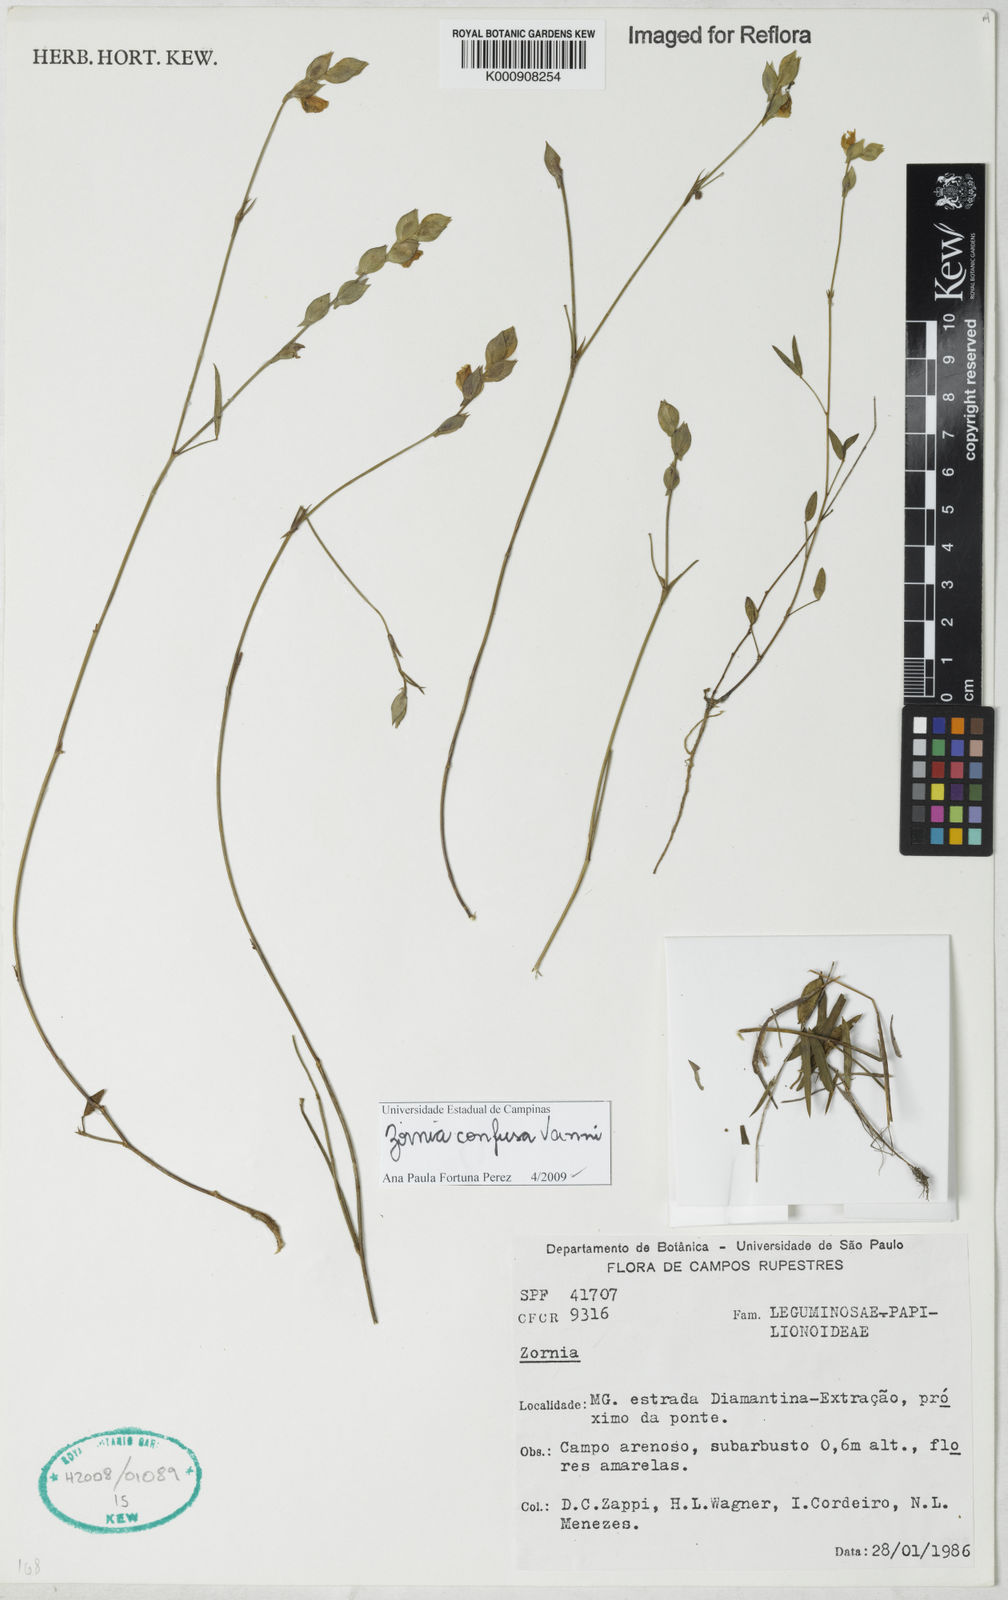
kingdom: Plantae
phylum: Tracheophyta
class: Magnoliopsida
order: Fabales
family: Fabaceae
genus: Zornia
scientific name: Zornia confusa
